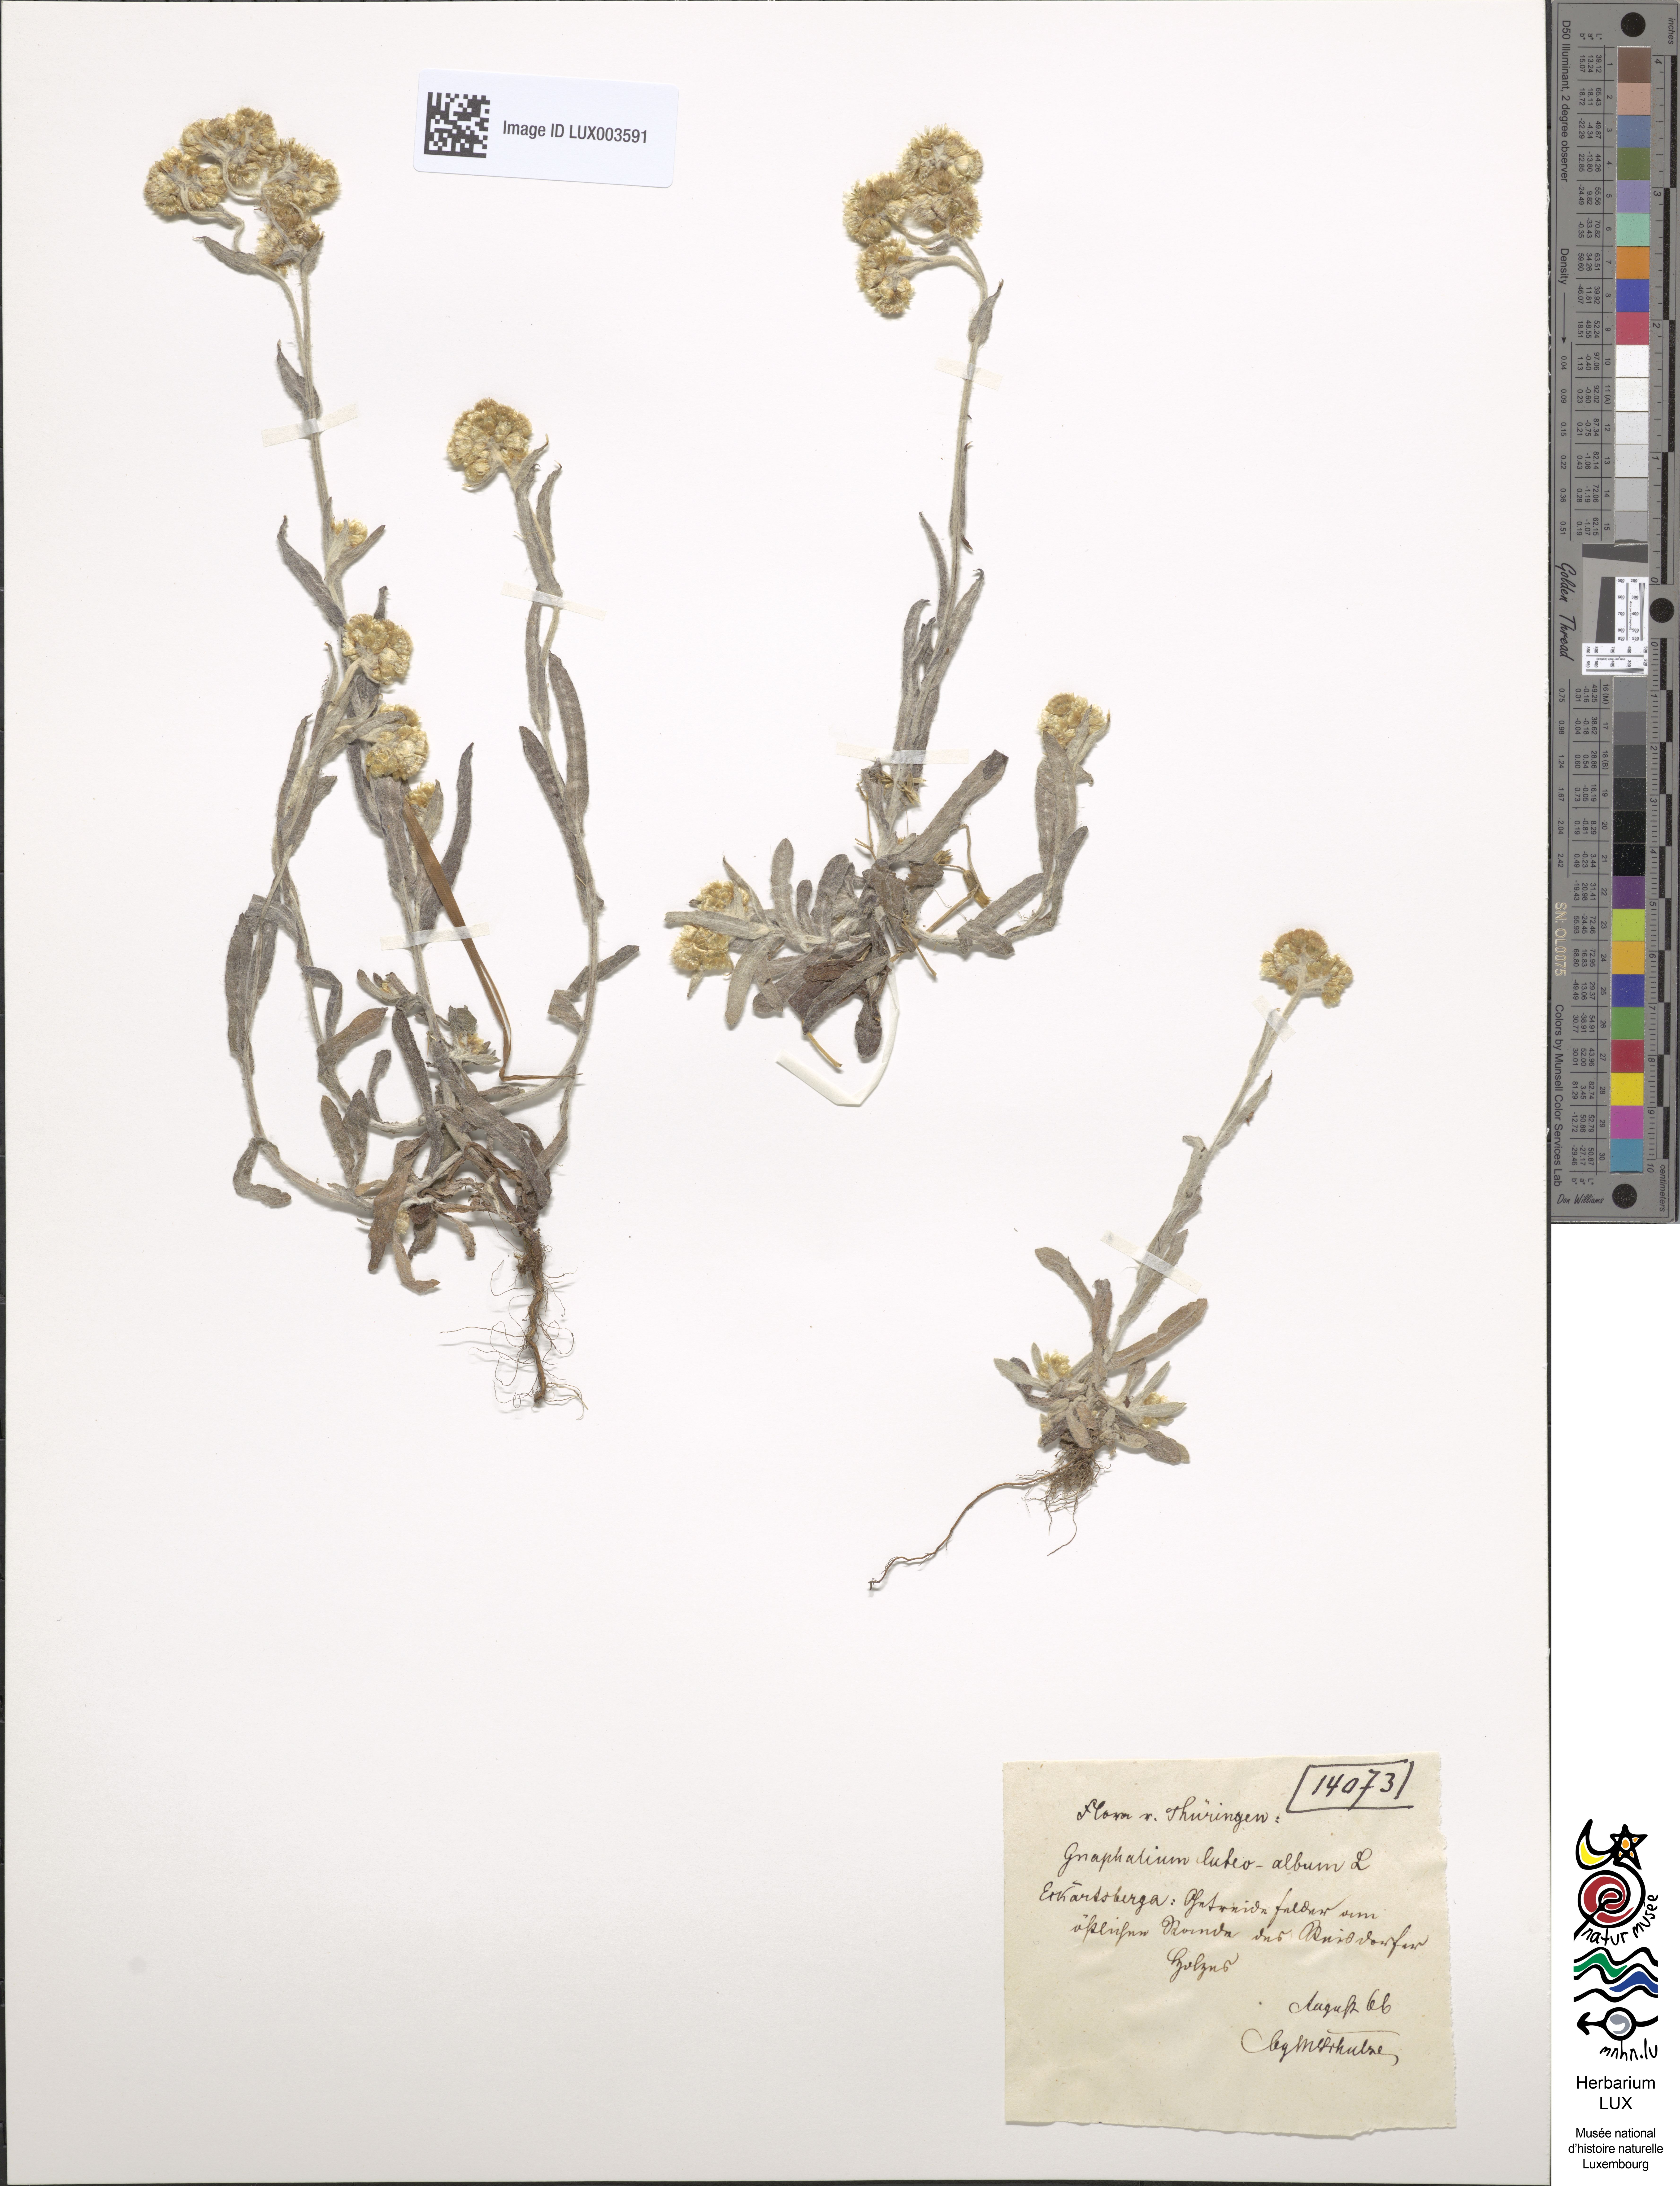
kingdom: Plantae
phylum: Tracheophyta
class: Magnoliopsida
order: Asterales
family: Asteraceae
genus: Helichrysum
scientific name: Helichrysum luteoalbum
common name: Daisy
